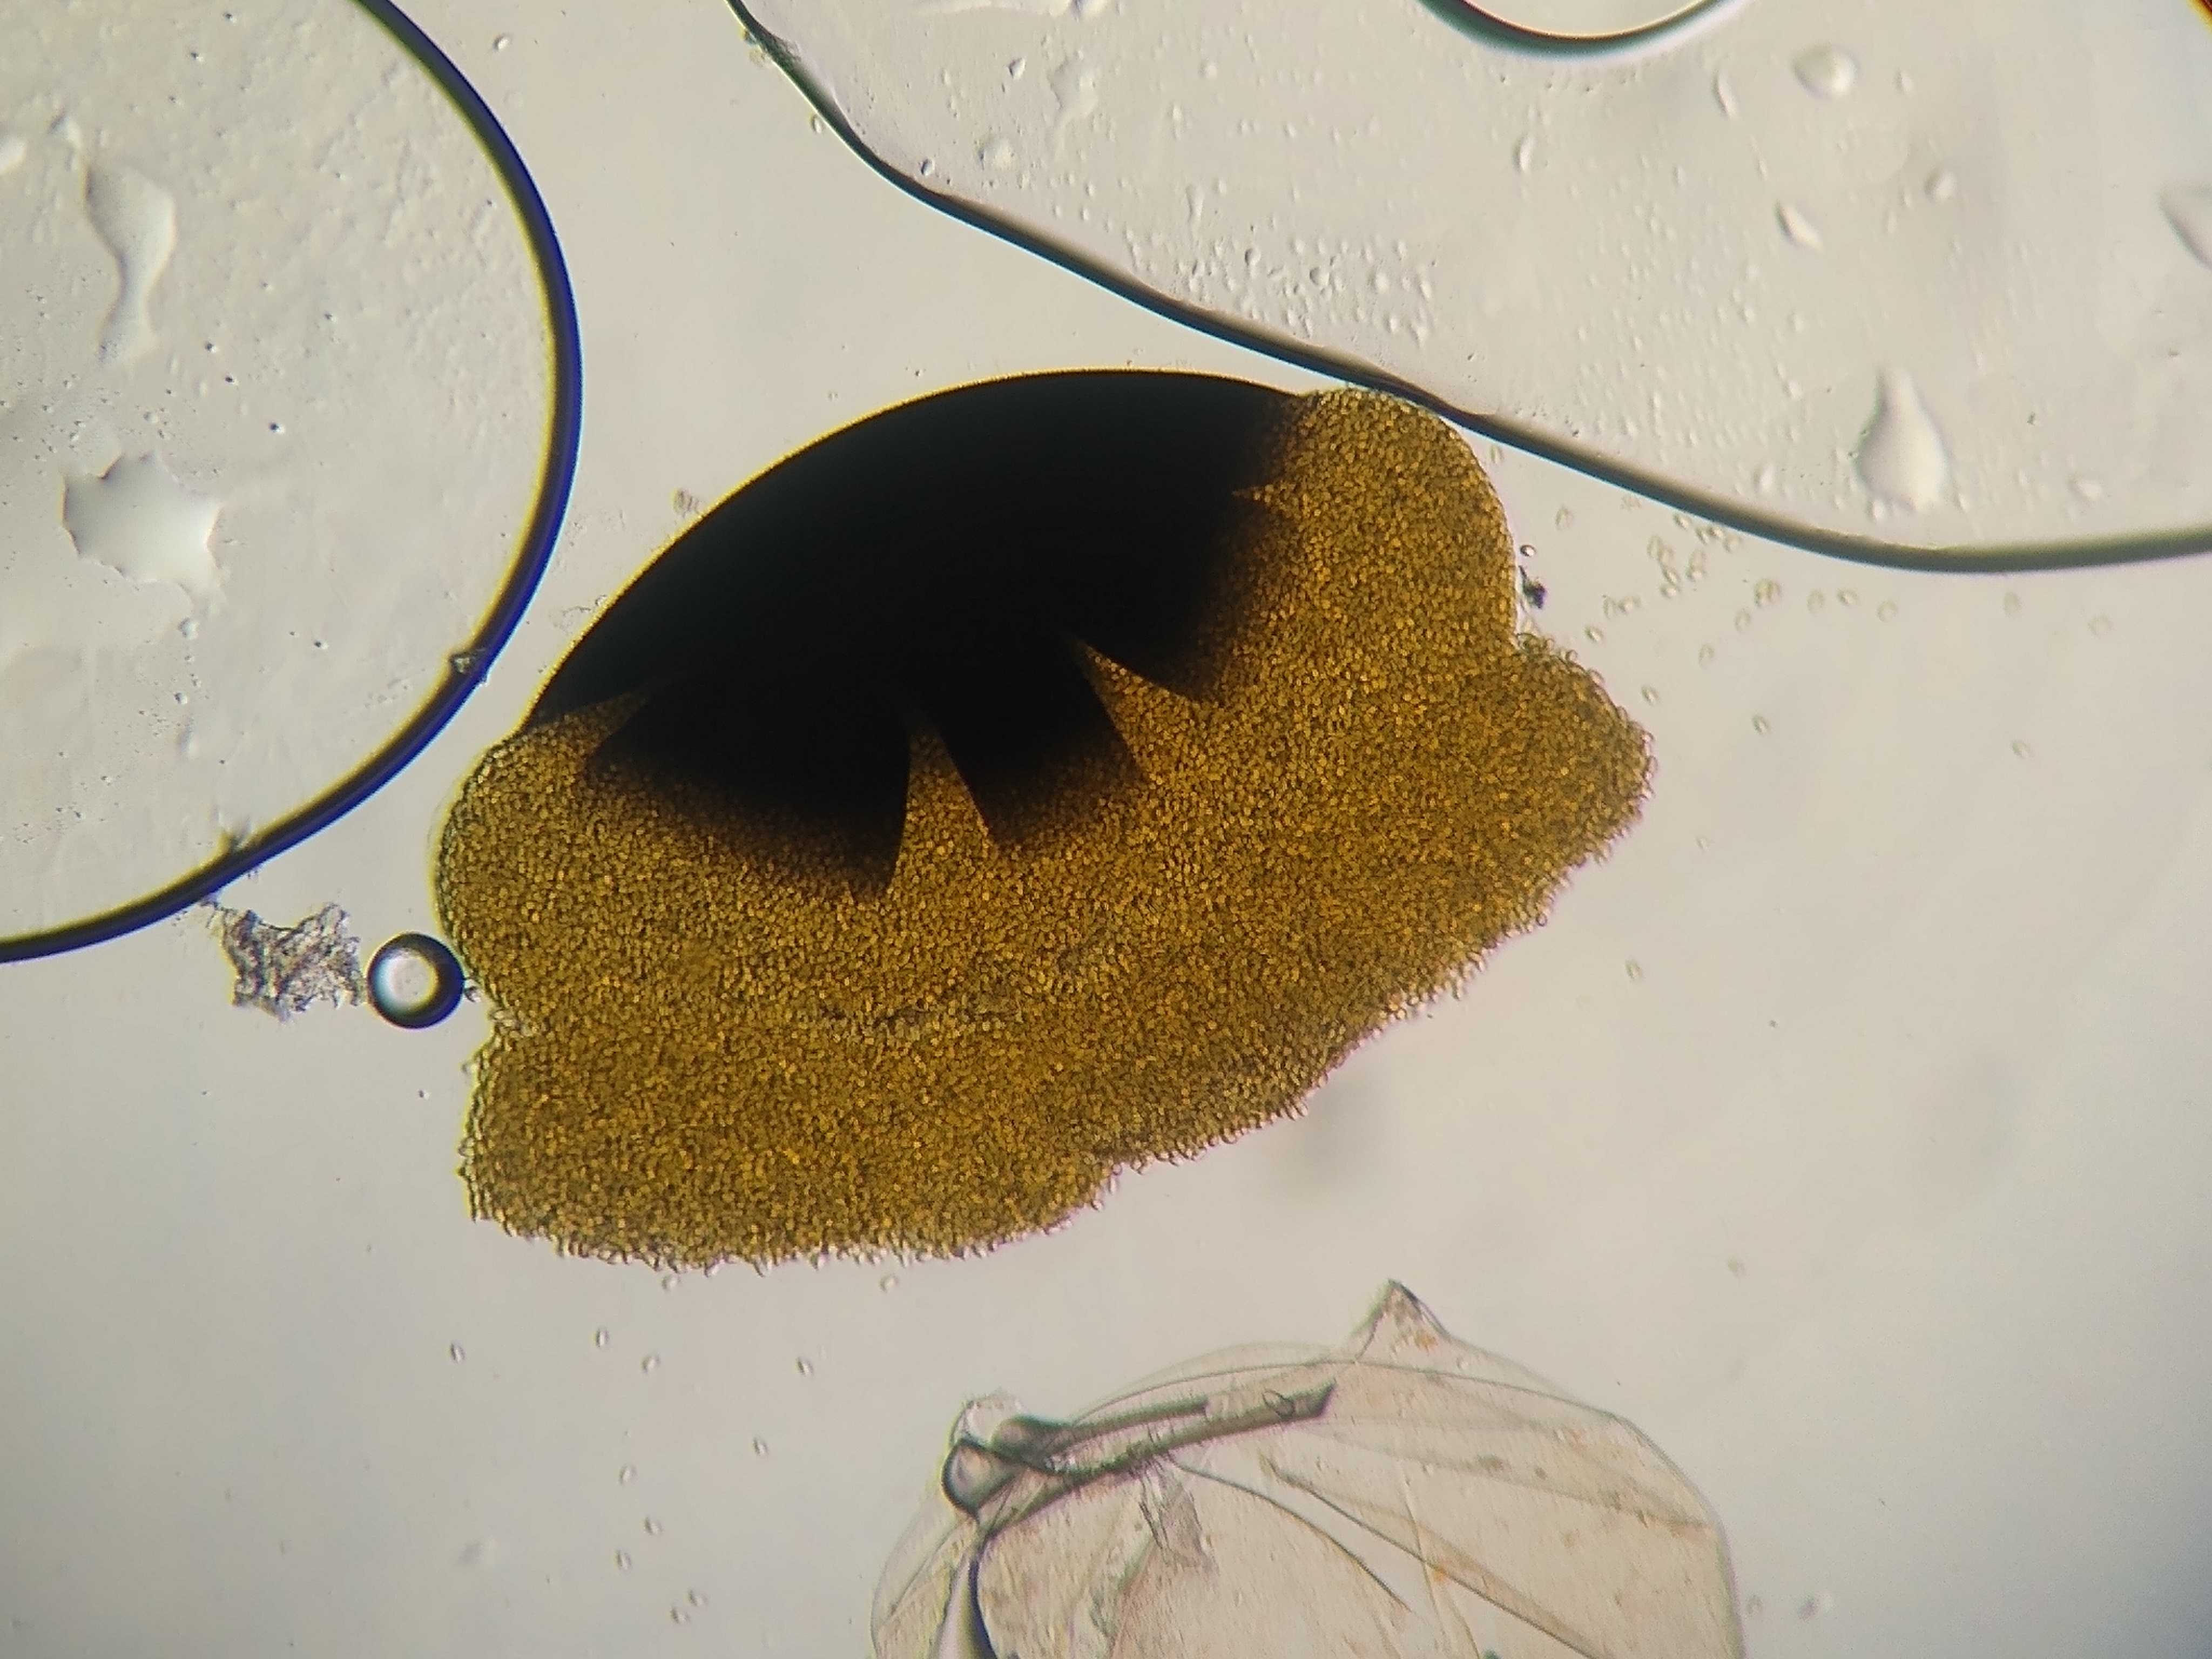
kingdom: Fungi
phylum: Mucoromycota
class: Mucoromycetes
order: Mucorales
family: Pilobolaceae
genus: Pilobolus
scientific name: Pilobolus
